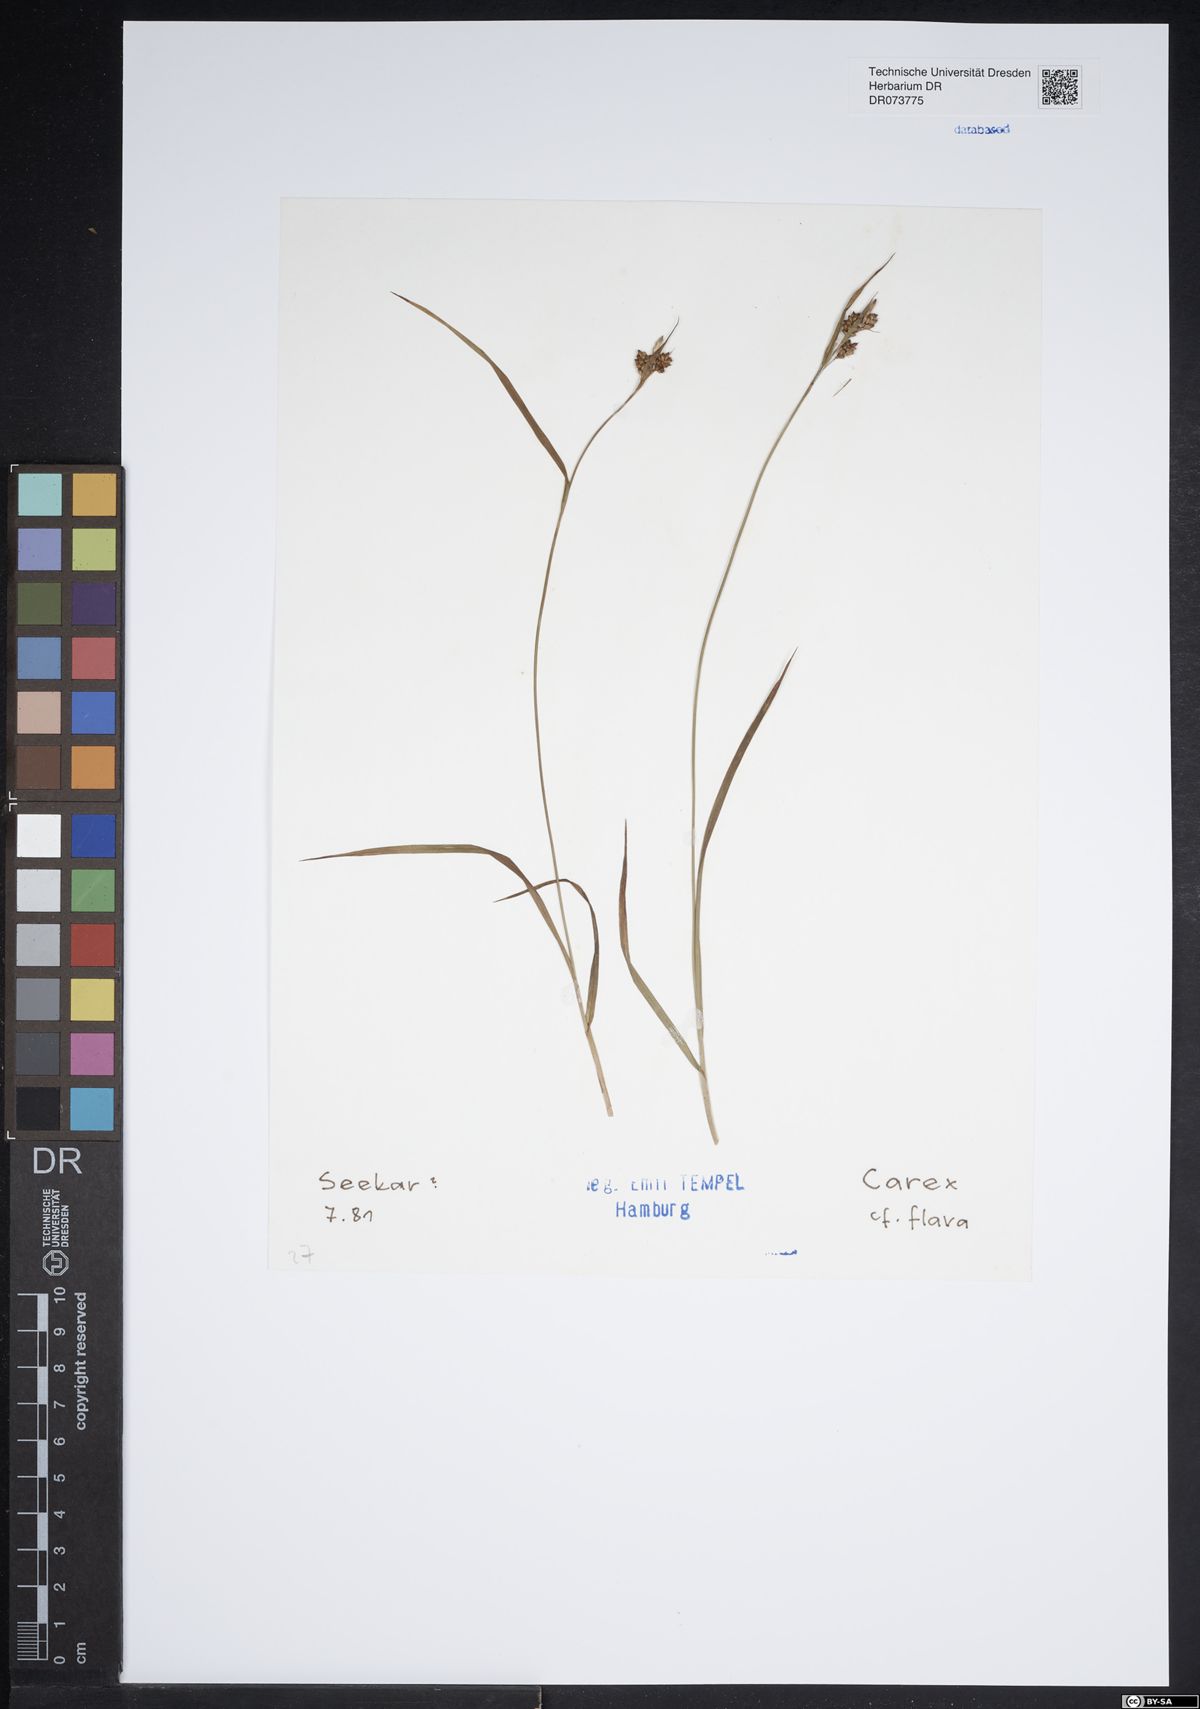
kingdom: Plantae
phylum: Tracheophyta
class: Liliopsida
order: Poales
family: Cyperaceae
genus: Carex
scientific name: Carex flava
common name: Large yellow-sedge
